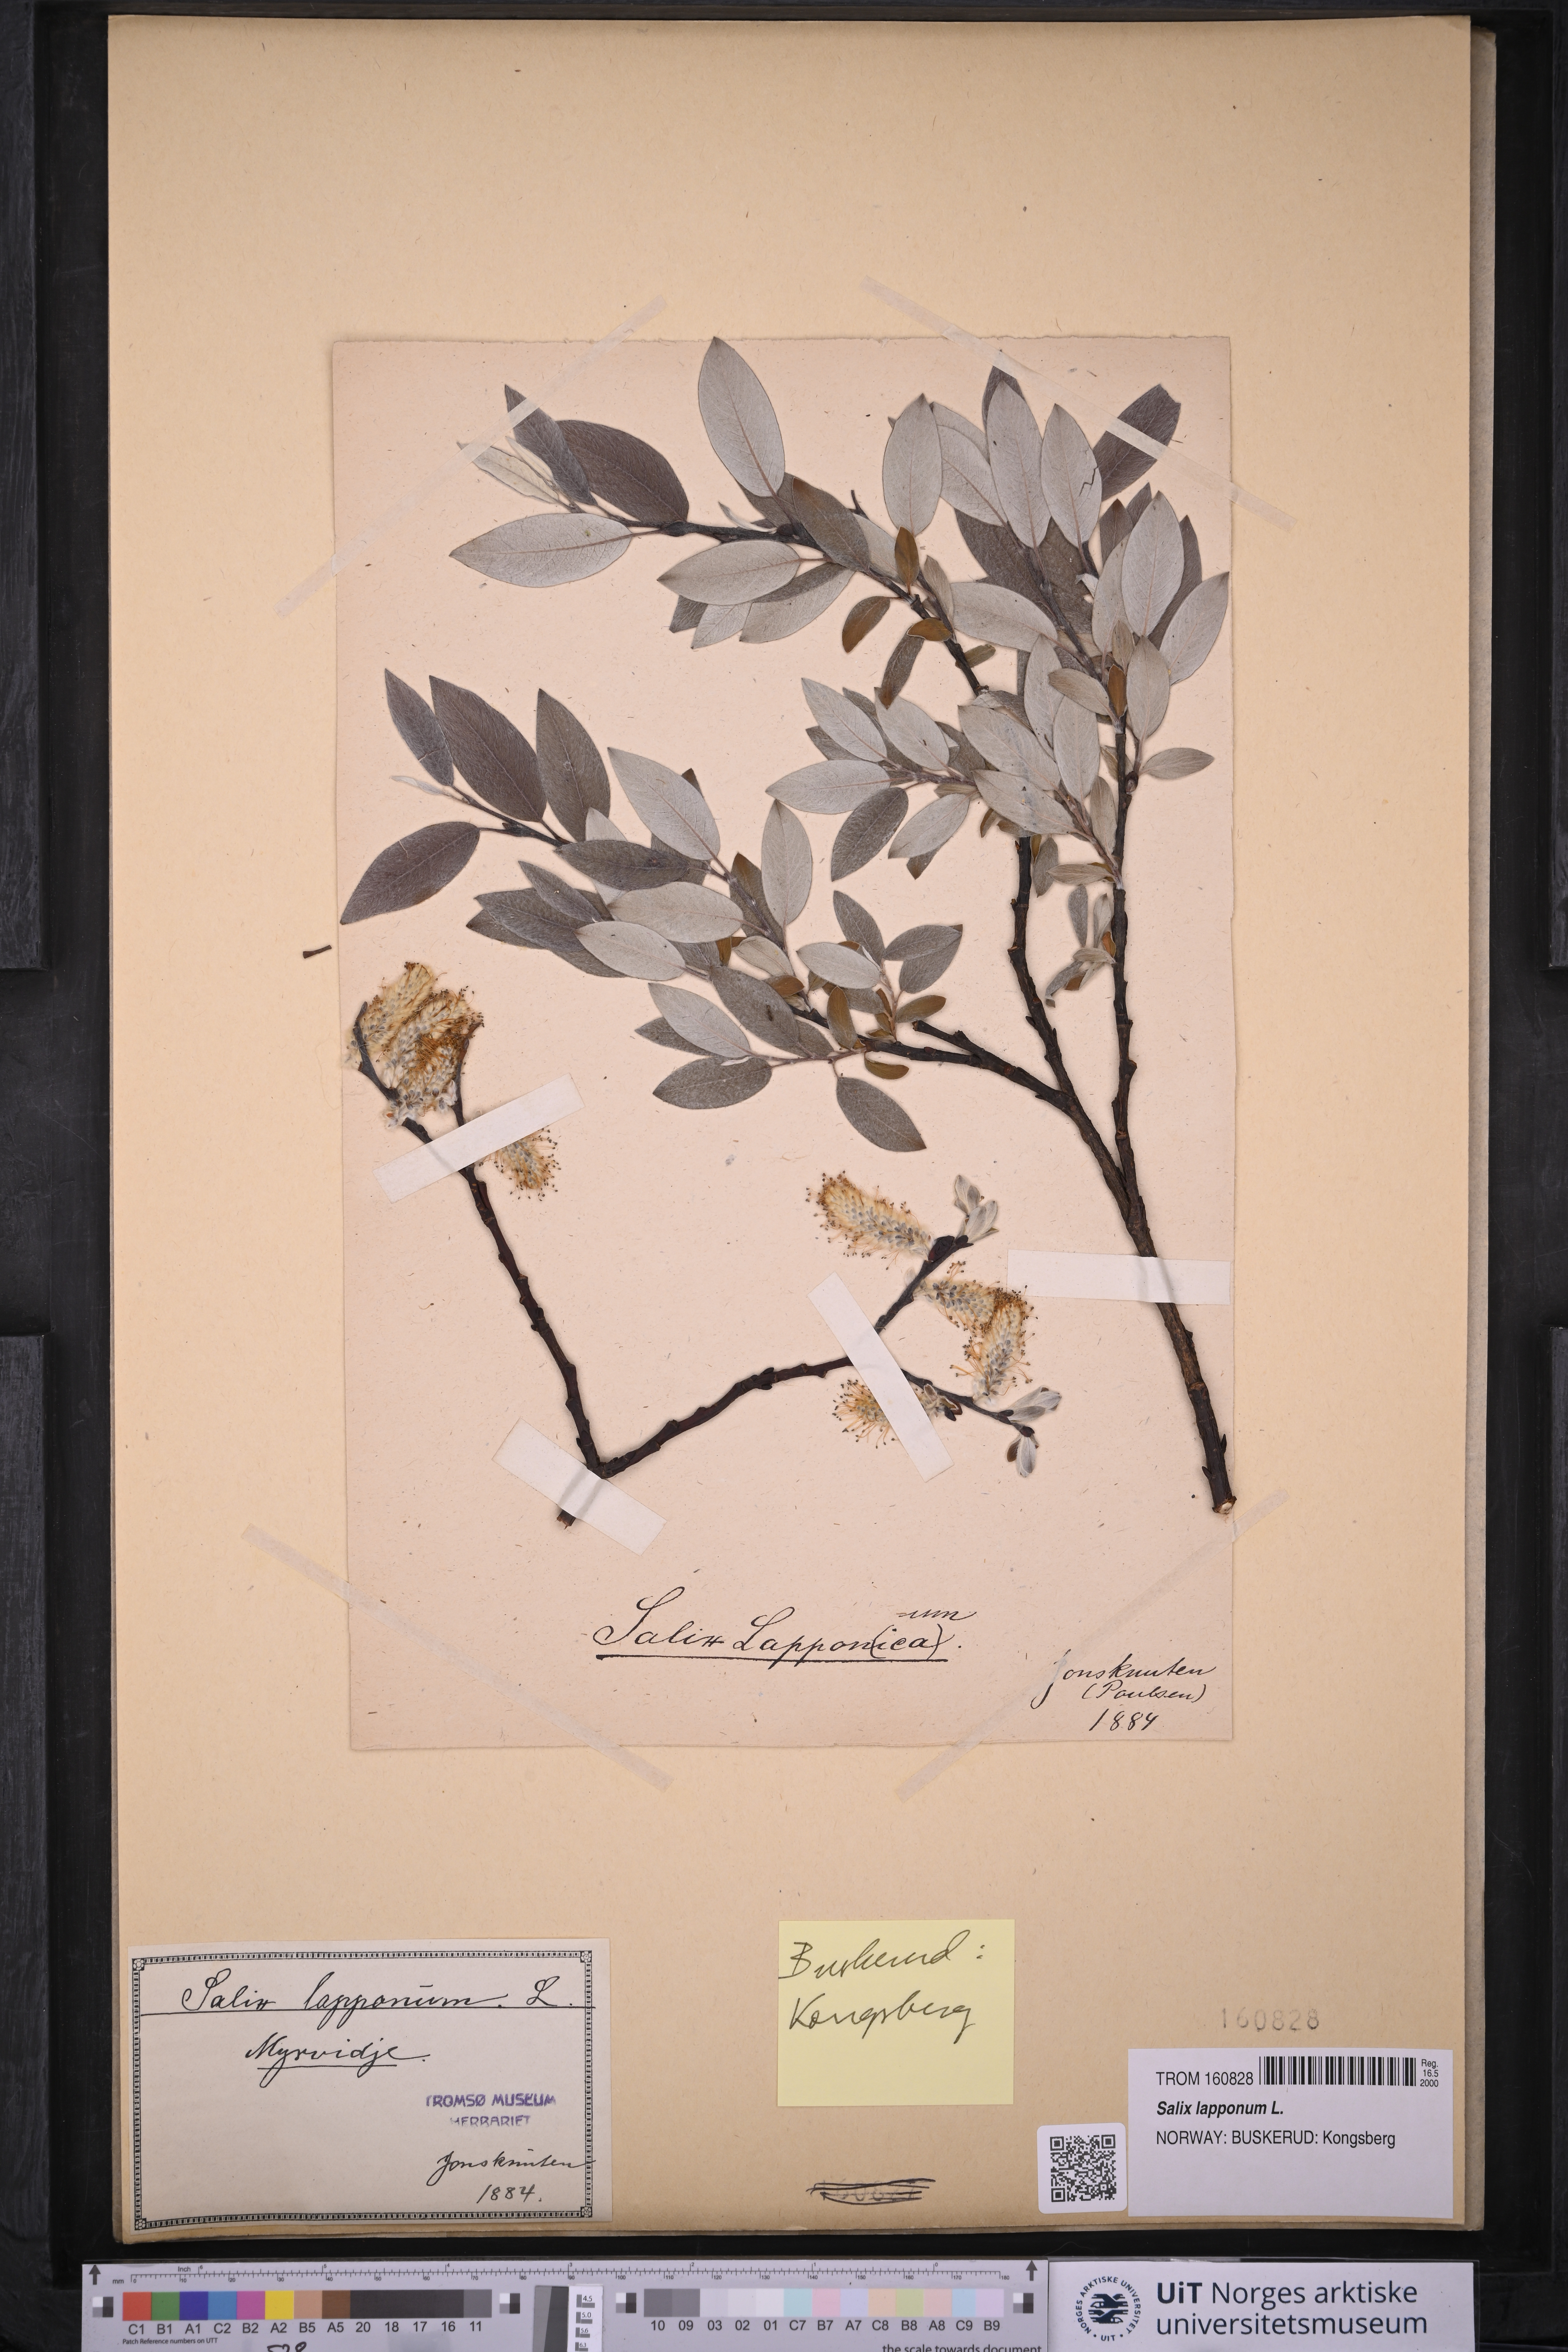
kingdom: Plantae
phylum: Tracheophyta
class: Magnoliopsida
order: Malpighiales
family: Salicaceae
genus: Salix
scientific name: Salix lapponum
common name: Downy willow
